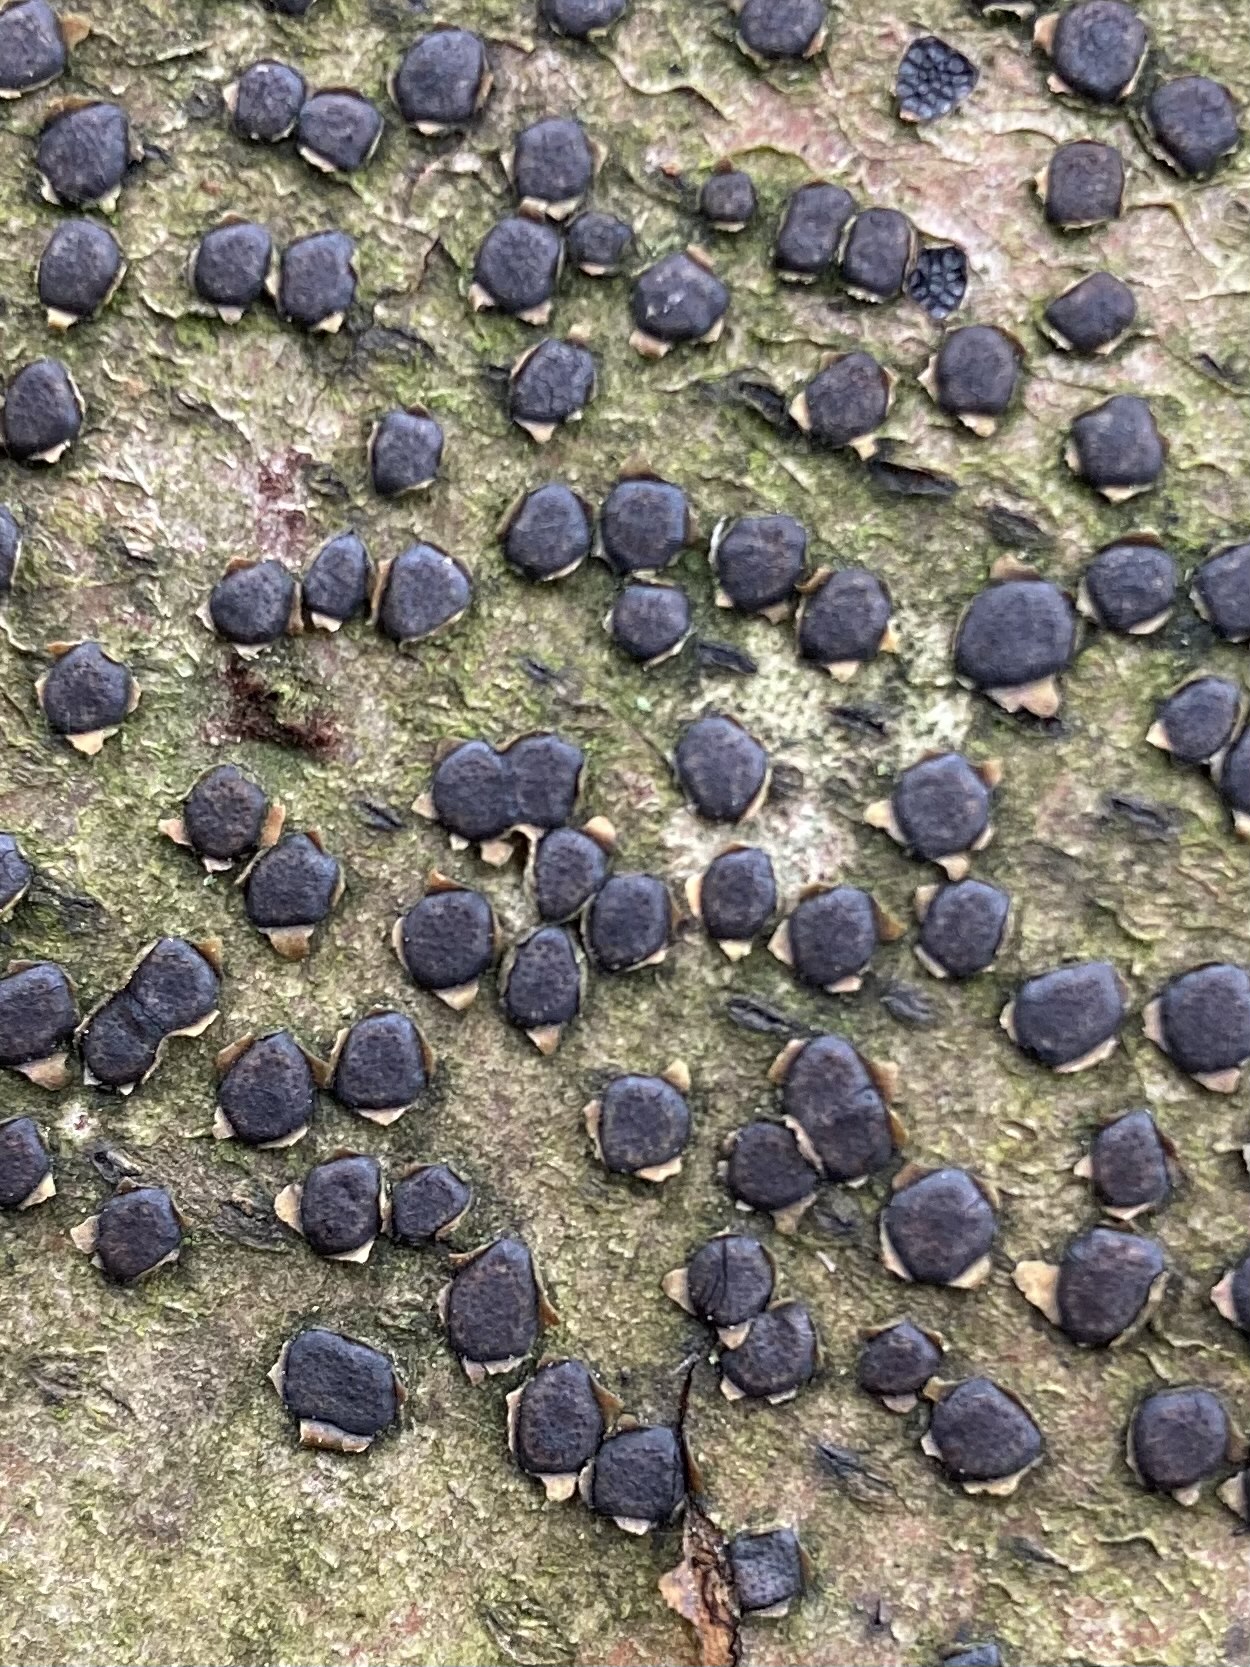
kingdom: Fungi
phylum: Ascomycota
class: Sordariomycetes
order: Xylariales
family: Diatrypaceae
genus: Diatrype
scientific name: Diatrype disciformis
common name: kant-kulskorpe
